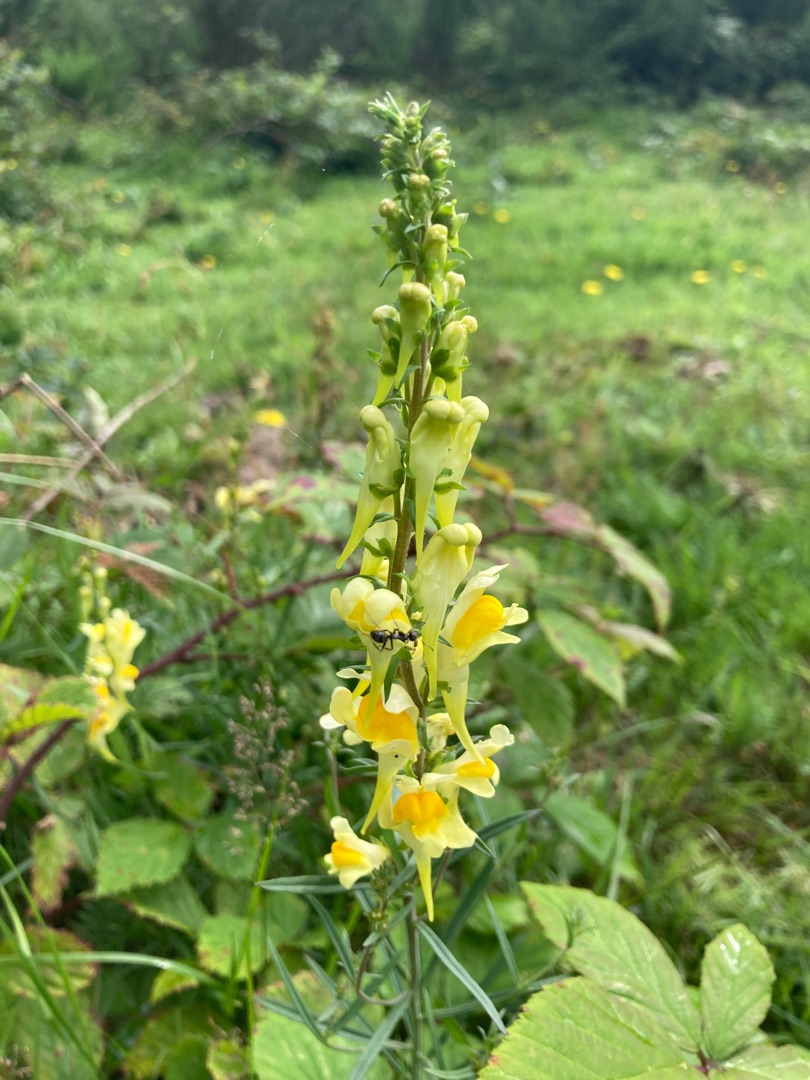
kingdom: Plantae
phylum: Tracheophyta
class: Magnoliopsida
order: Lamiales
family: Plantaginaceae
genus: Linaria
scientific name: Linaria vulgaris
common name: Almindelig torskemund
